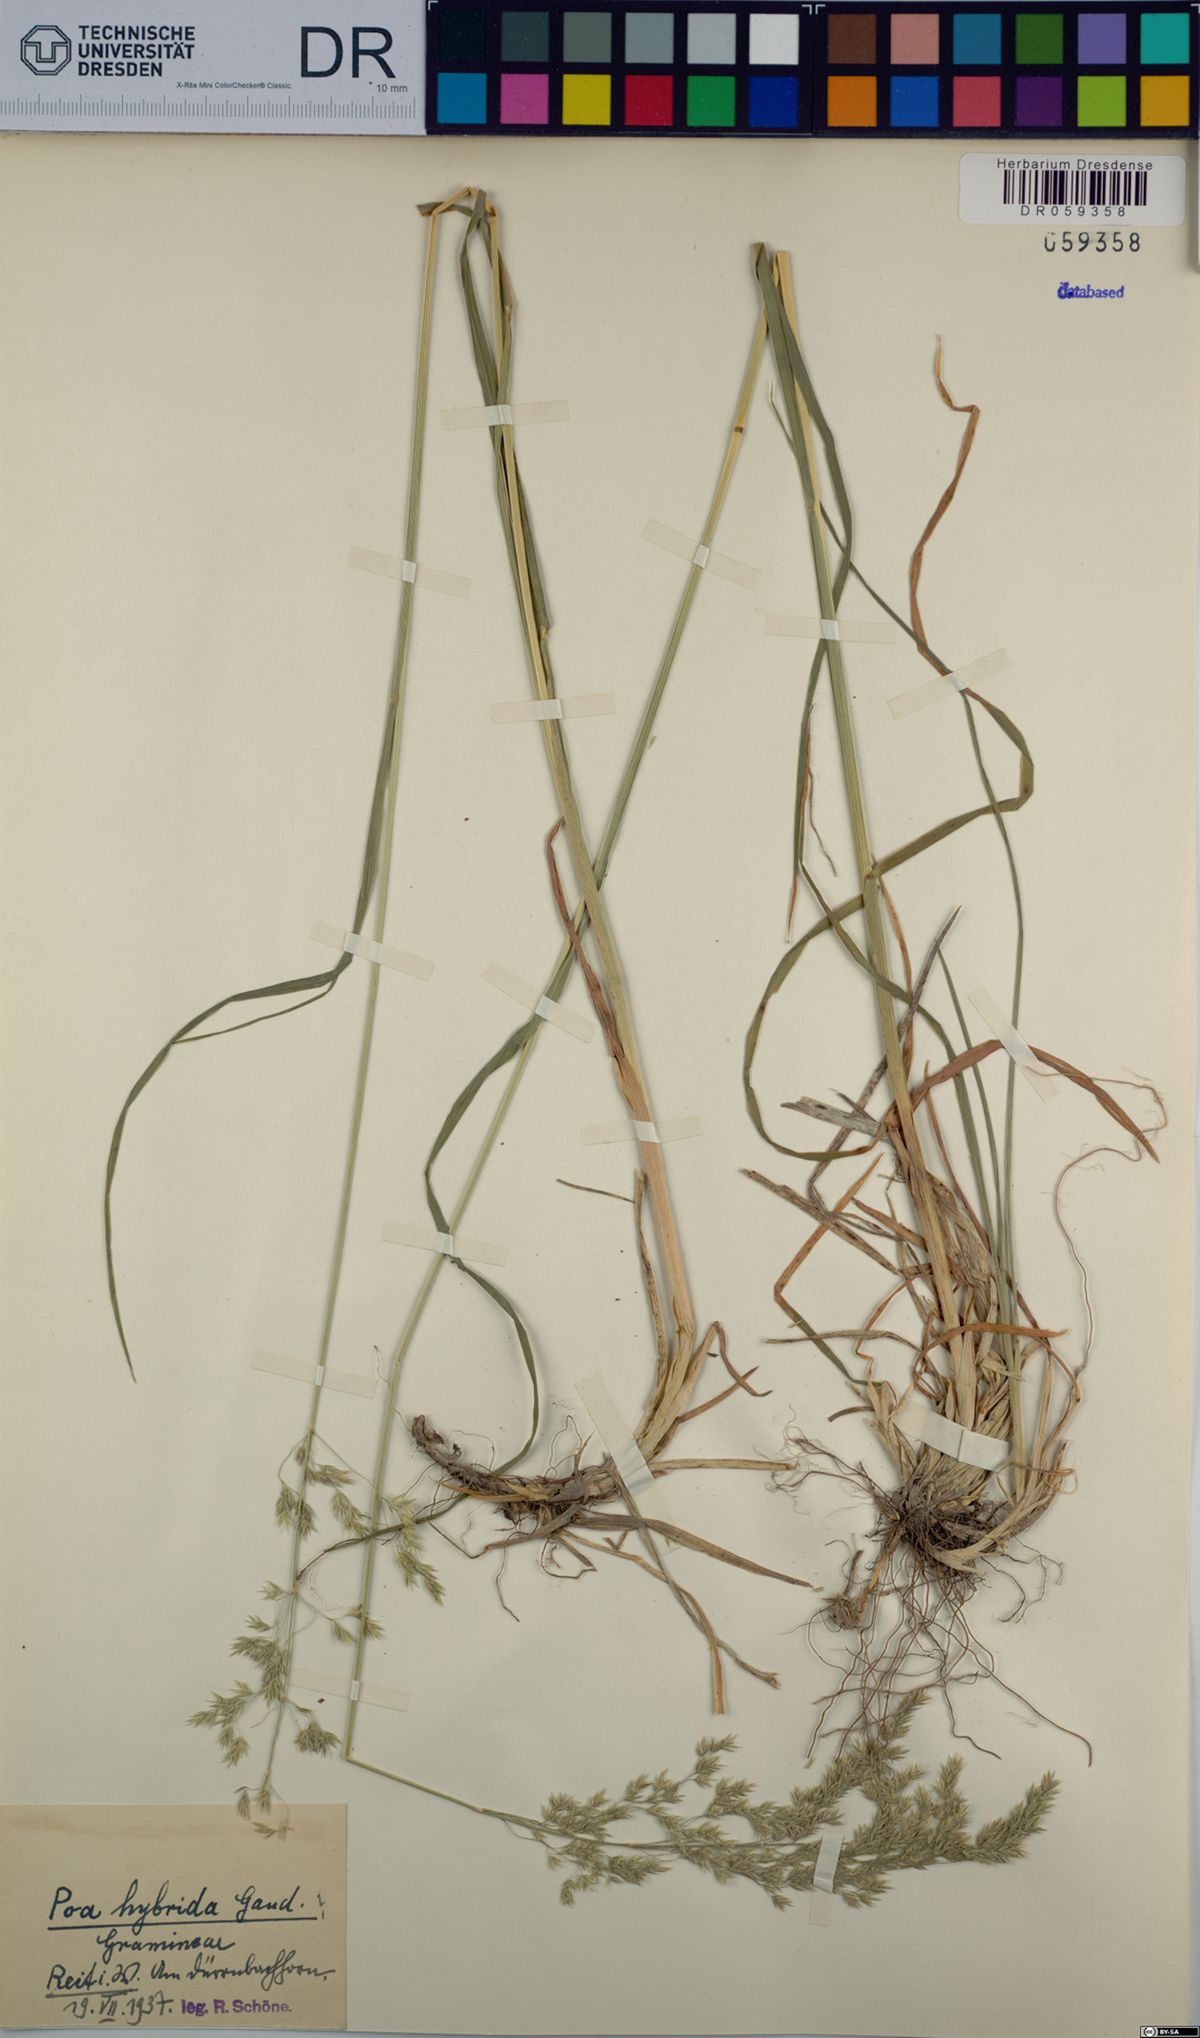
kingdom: Plantae
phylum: Tracheophyta
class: Liliopsida
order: Poales
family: Poaceae
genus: Poa
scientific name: Poa hybrida
